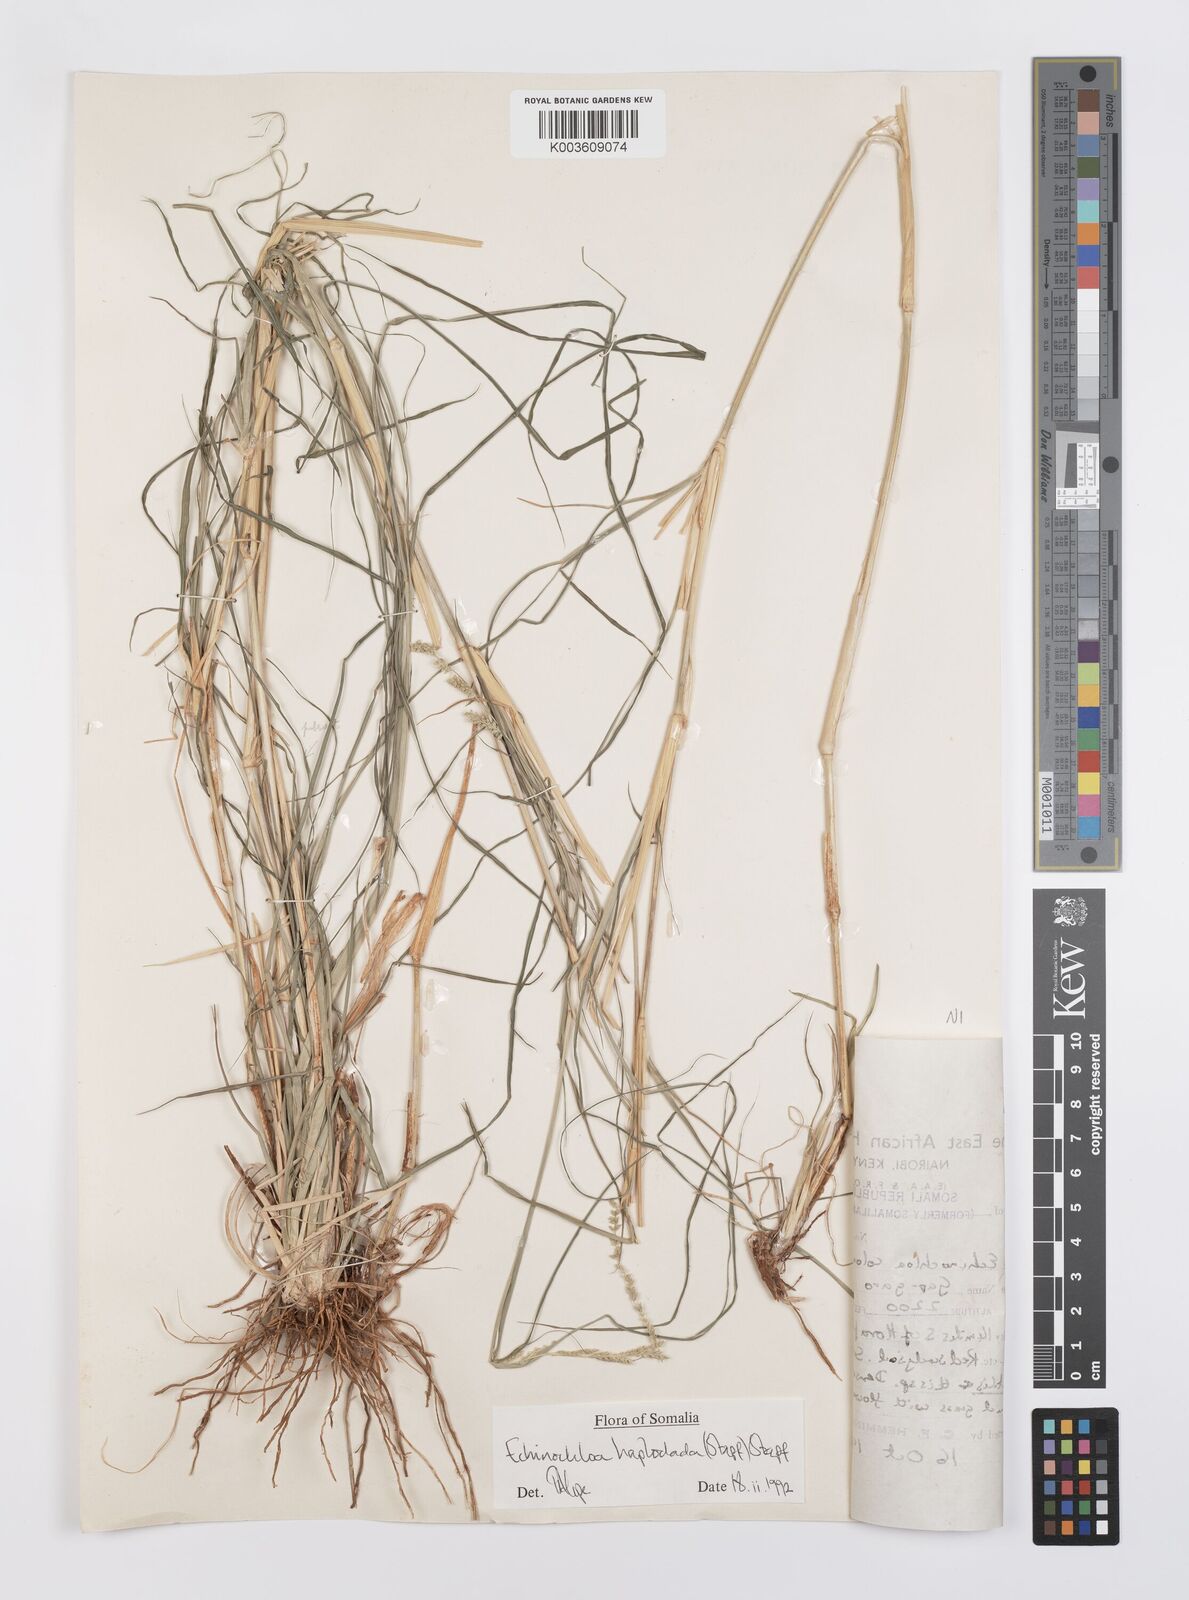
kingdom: Plantae
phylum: Tracheophyta
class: Liliopsida
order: Poales
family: Poaceae
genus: Echinochloa
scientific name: Echinochloa haploclada
